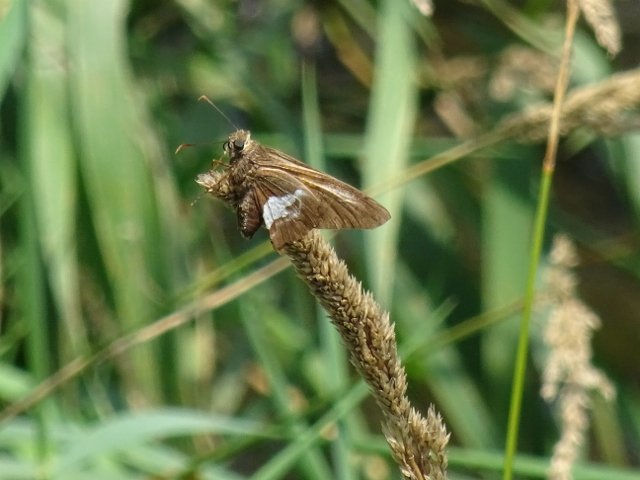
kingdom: Animalia
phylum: Arthropoda
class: Insecta
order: Lepidoptera
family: Hesperiidae
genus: Epargyreus
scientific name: Epargyreus clarus
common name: Silver-spotted Skipper
